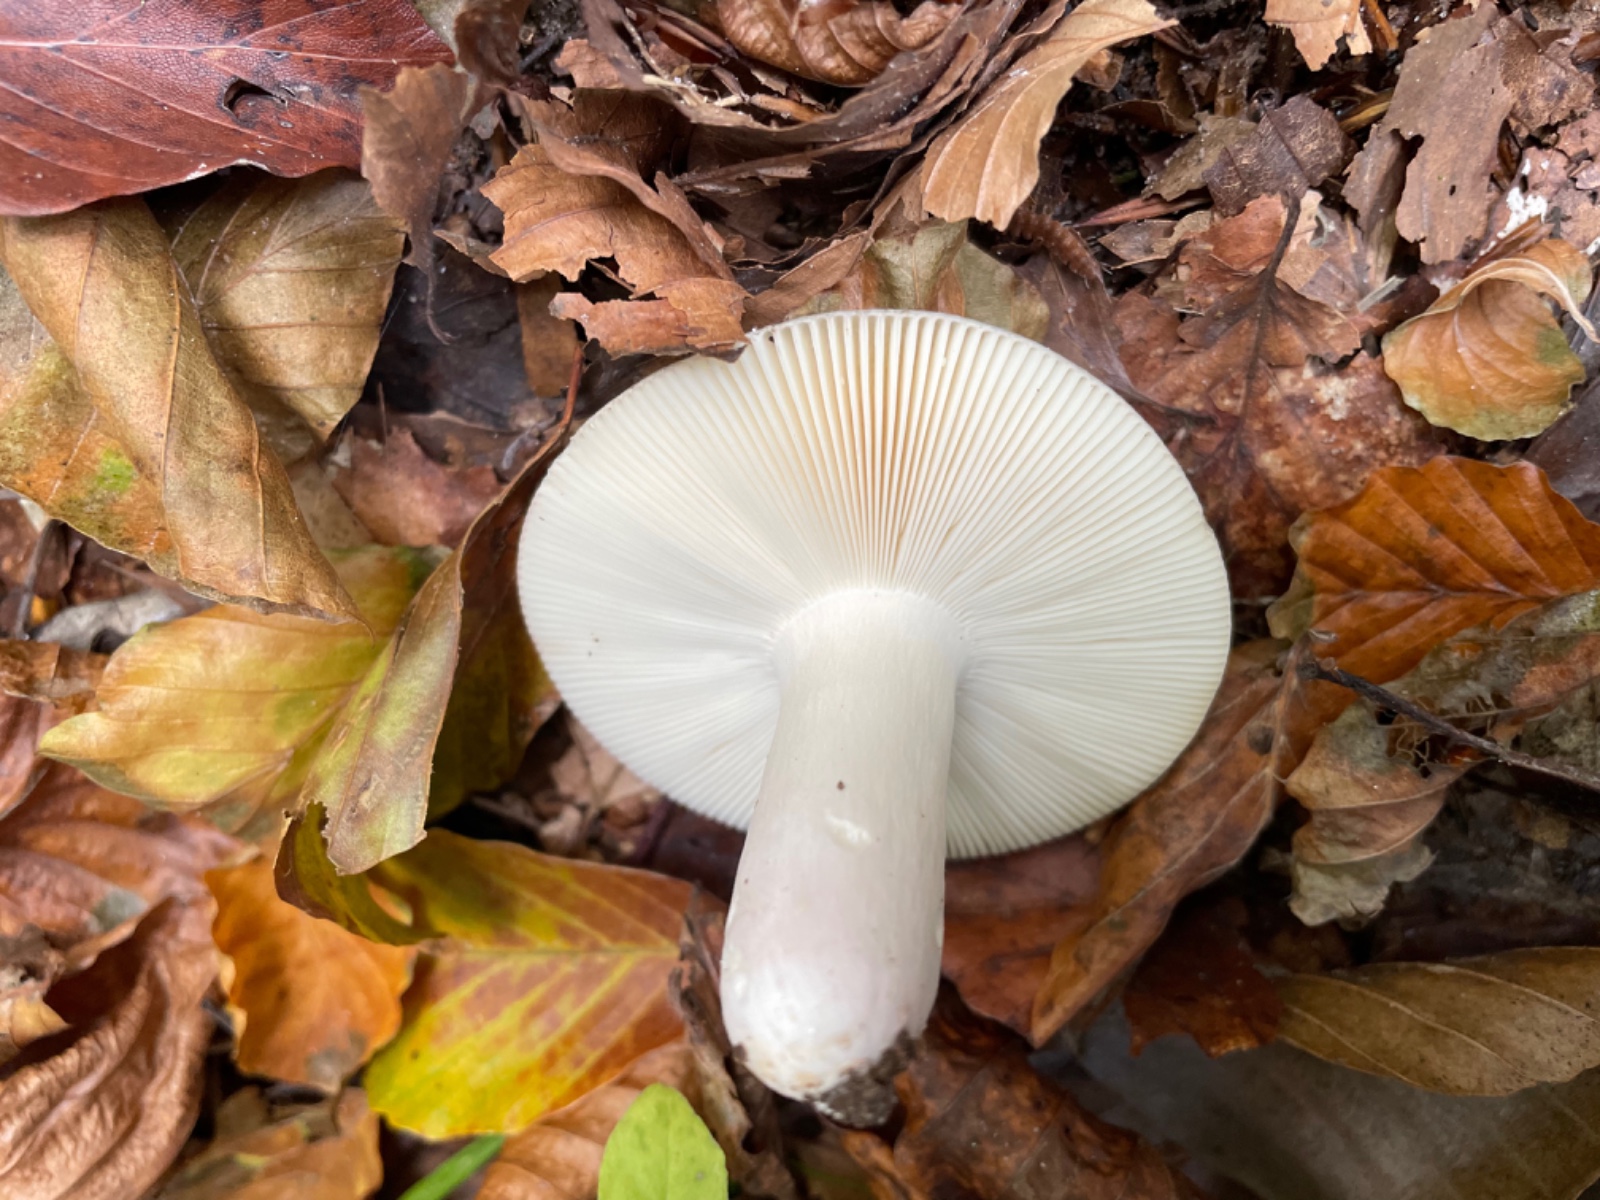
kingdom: Fungi
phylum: Basidiomycota
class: Agaricomycetes
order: Russulales
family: Russulaceae
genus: Russula
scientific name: Russula
